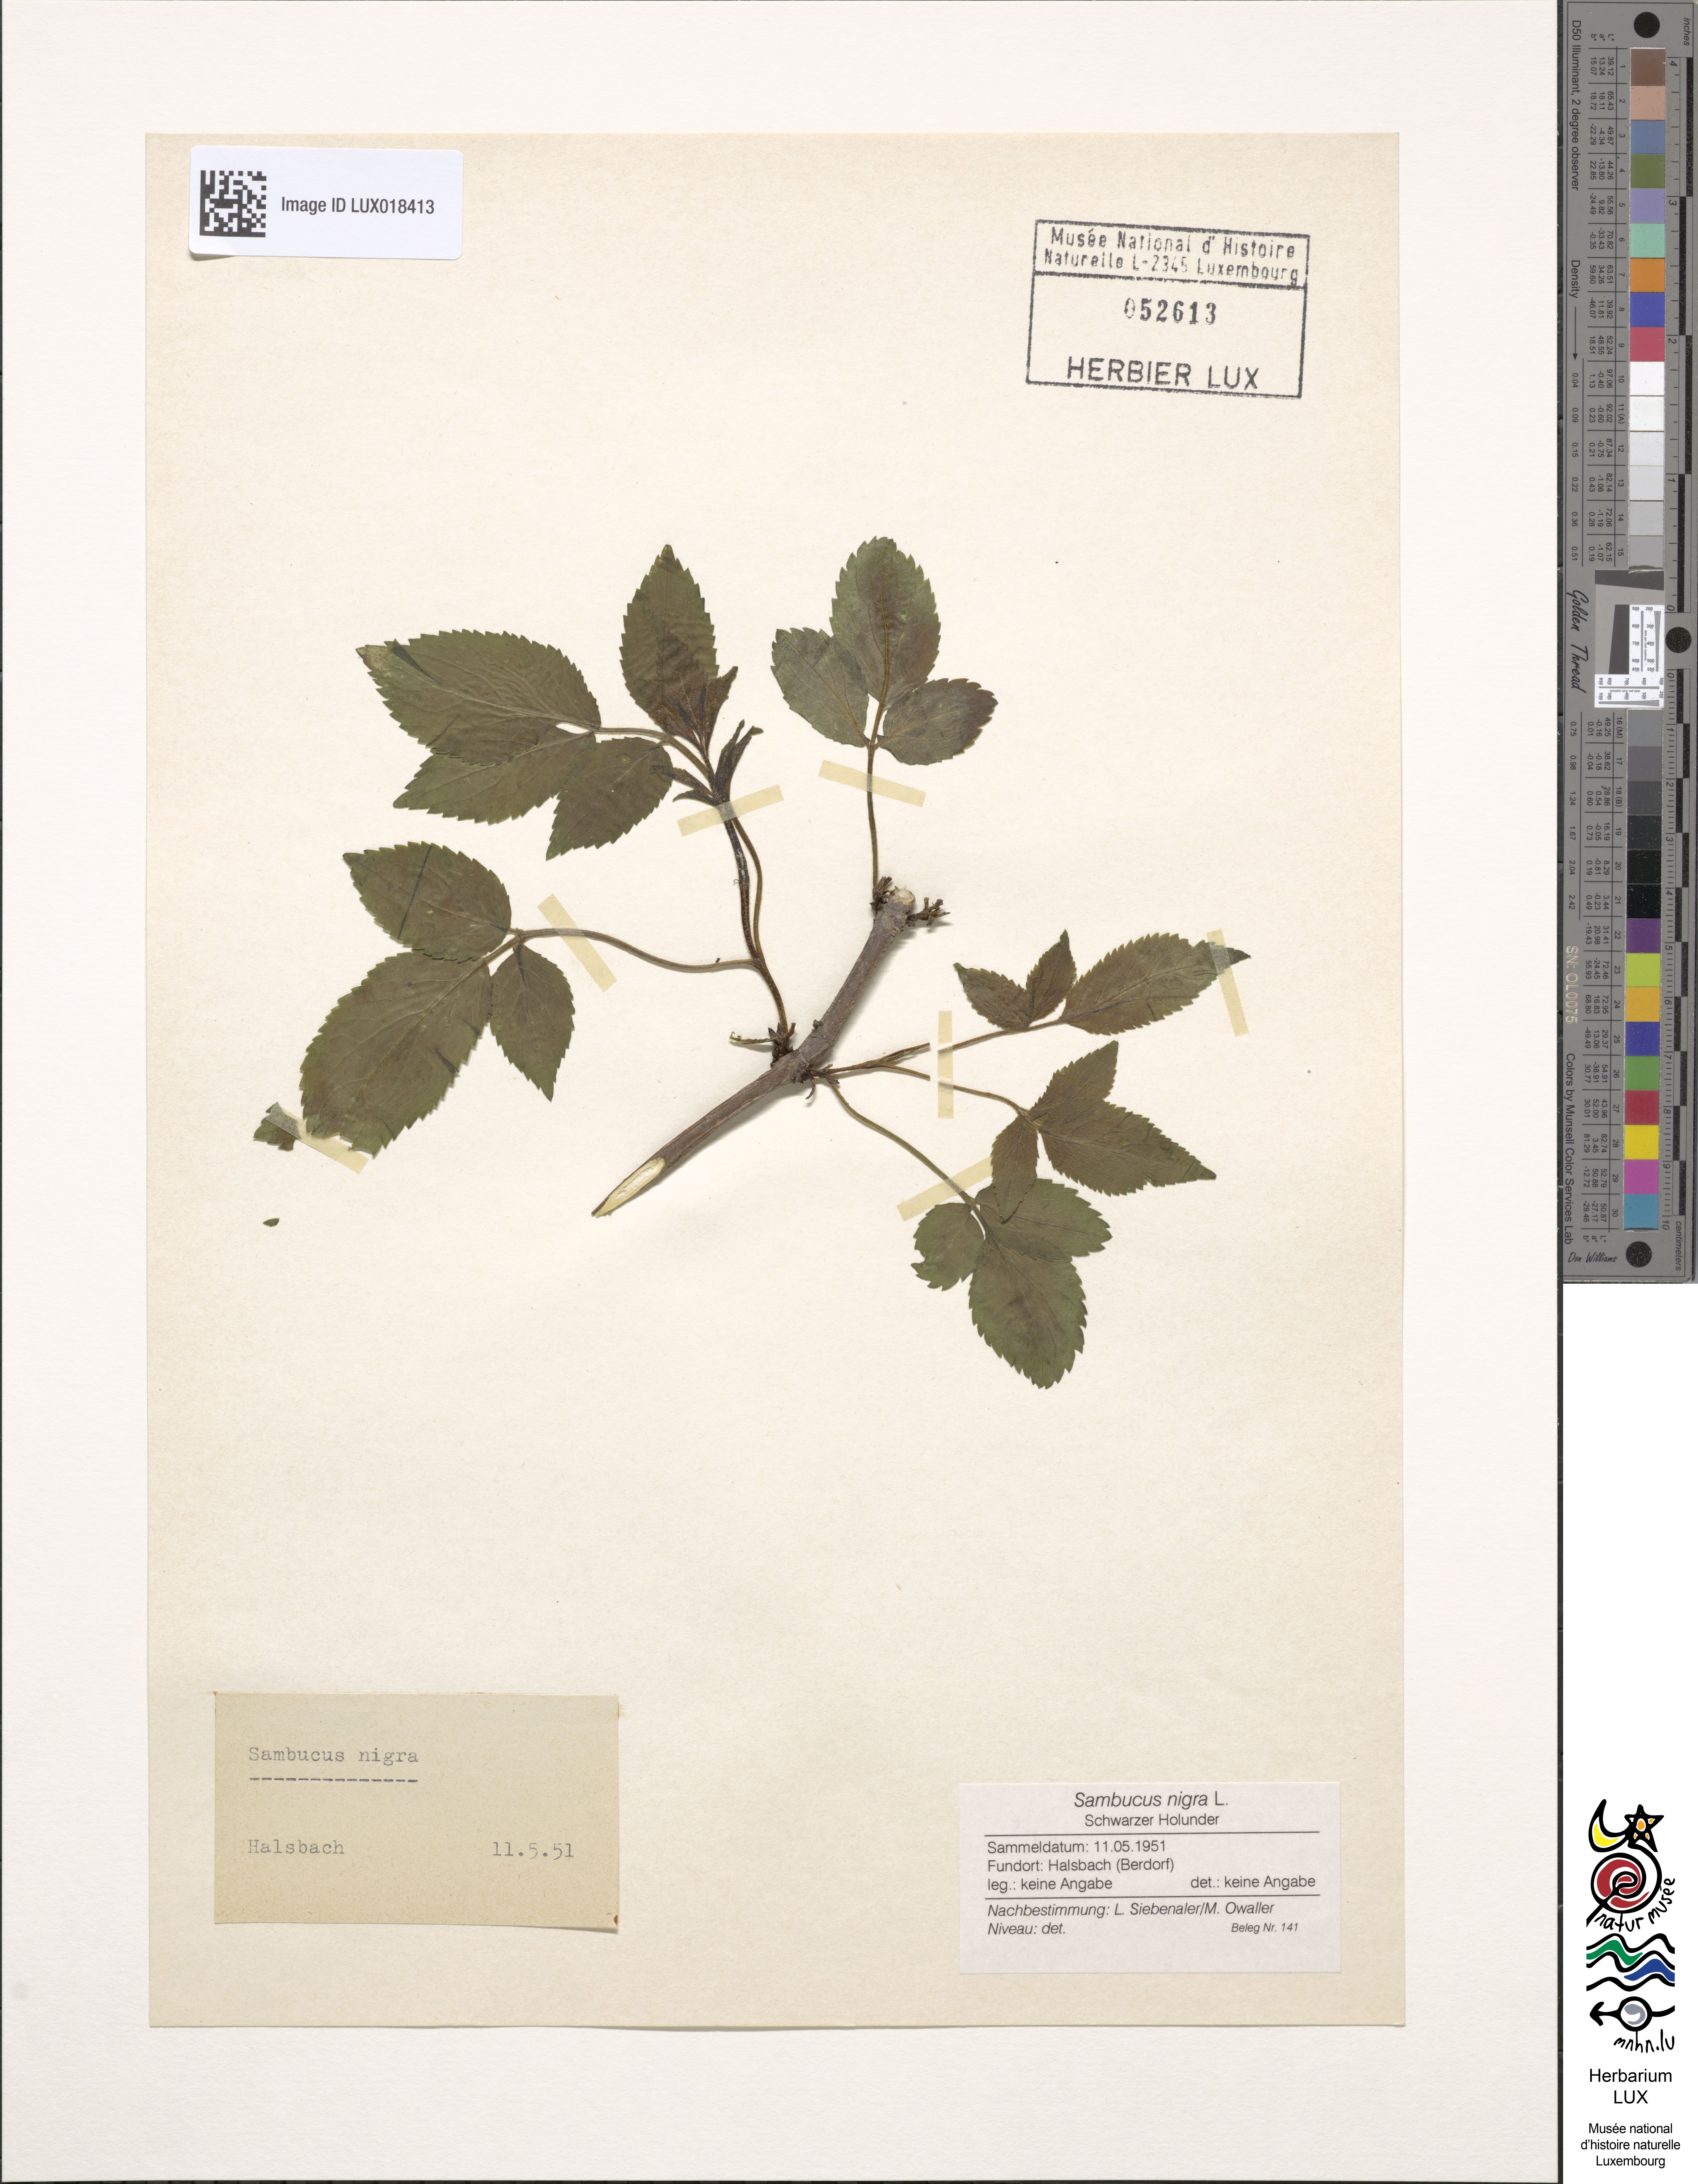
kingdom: Plantae
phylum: Tracheophyta
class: Magnoliopsida
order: Dipsacales
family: Viburnaceae
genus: Sambucus
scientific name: Sambucus nigra
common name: Elder
